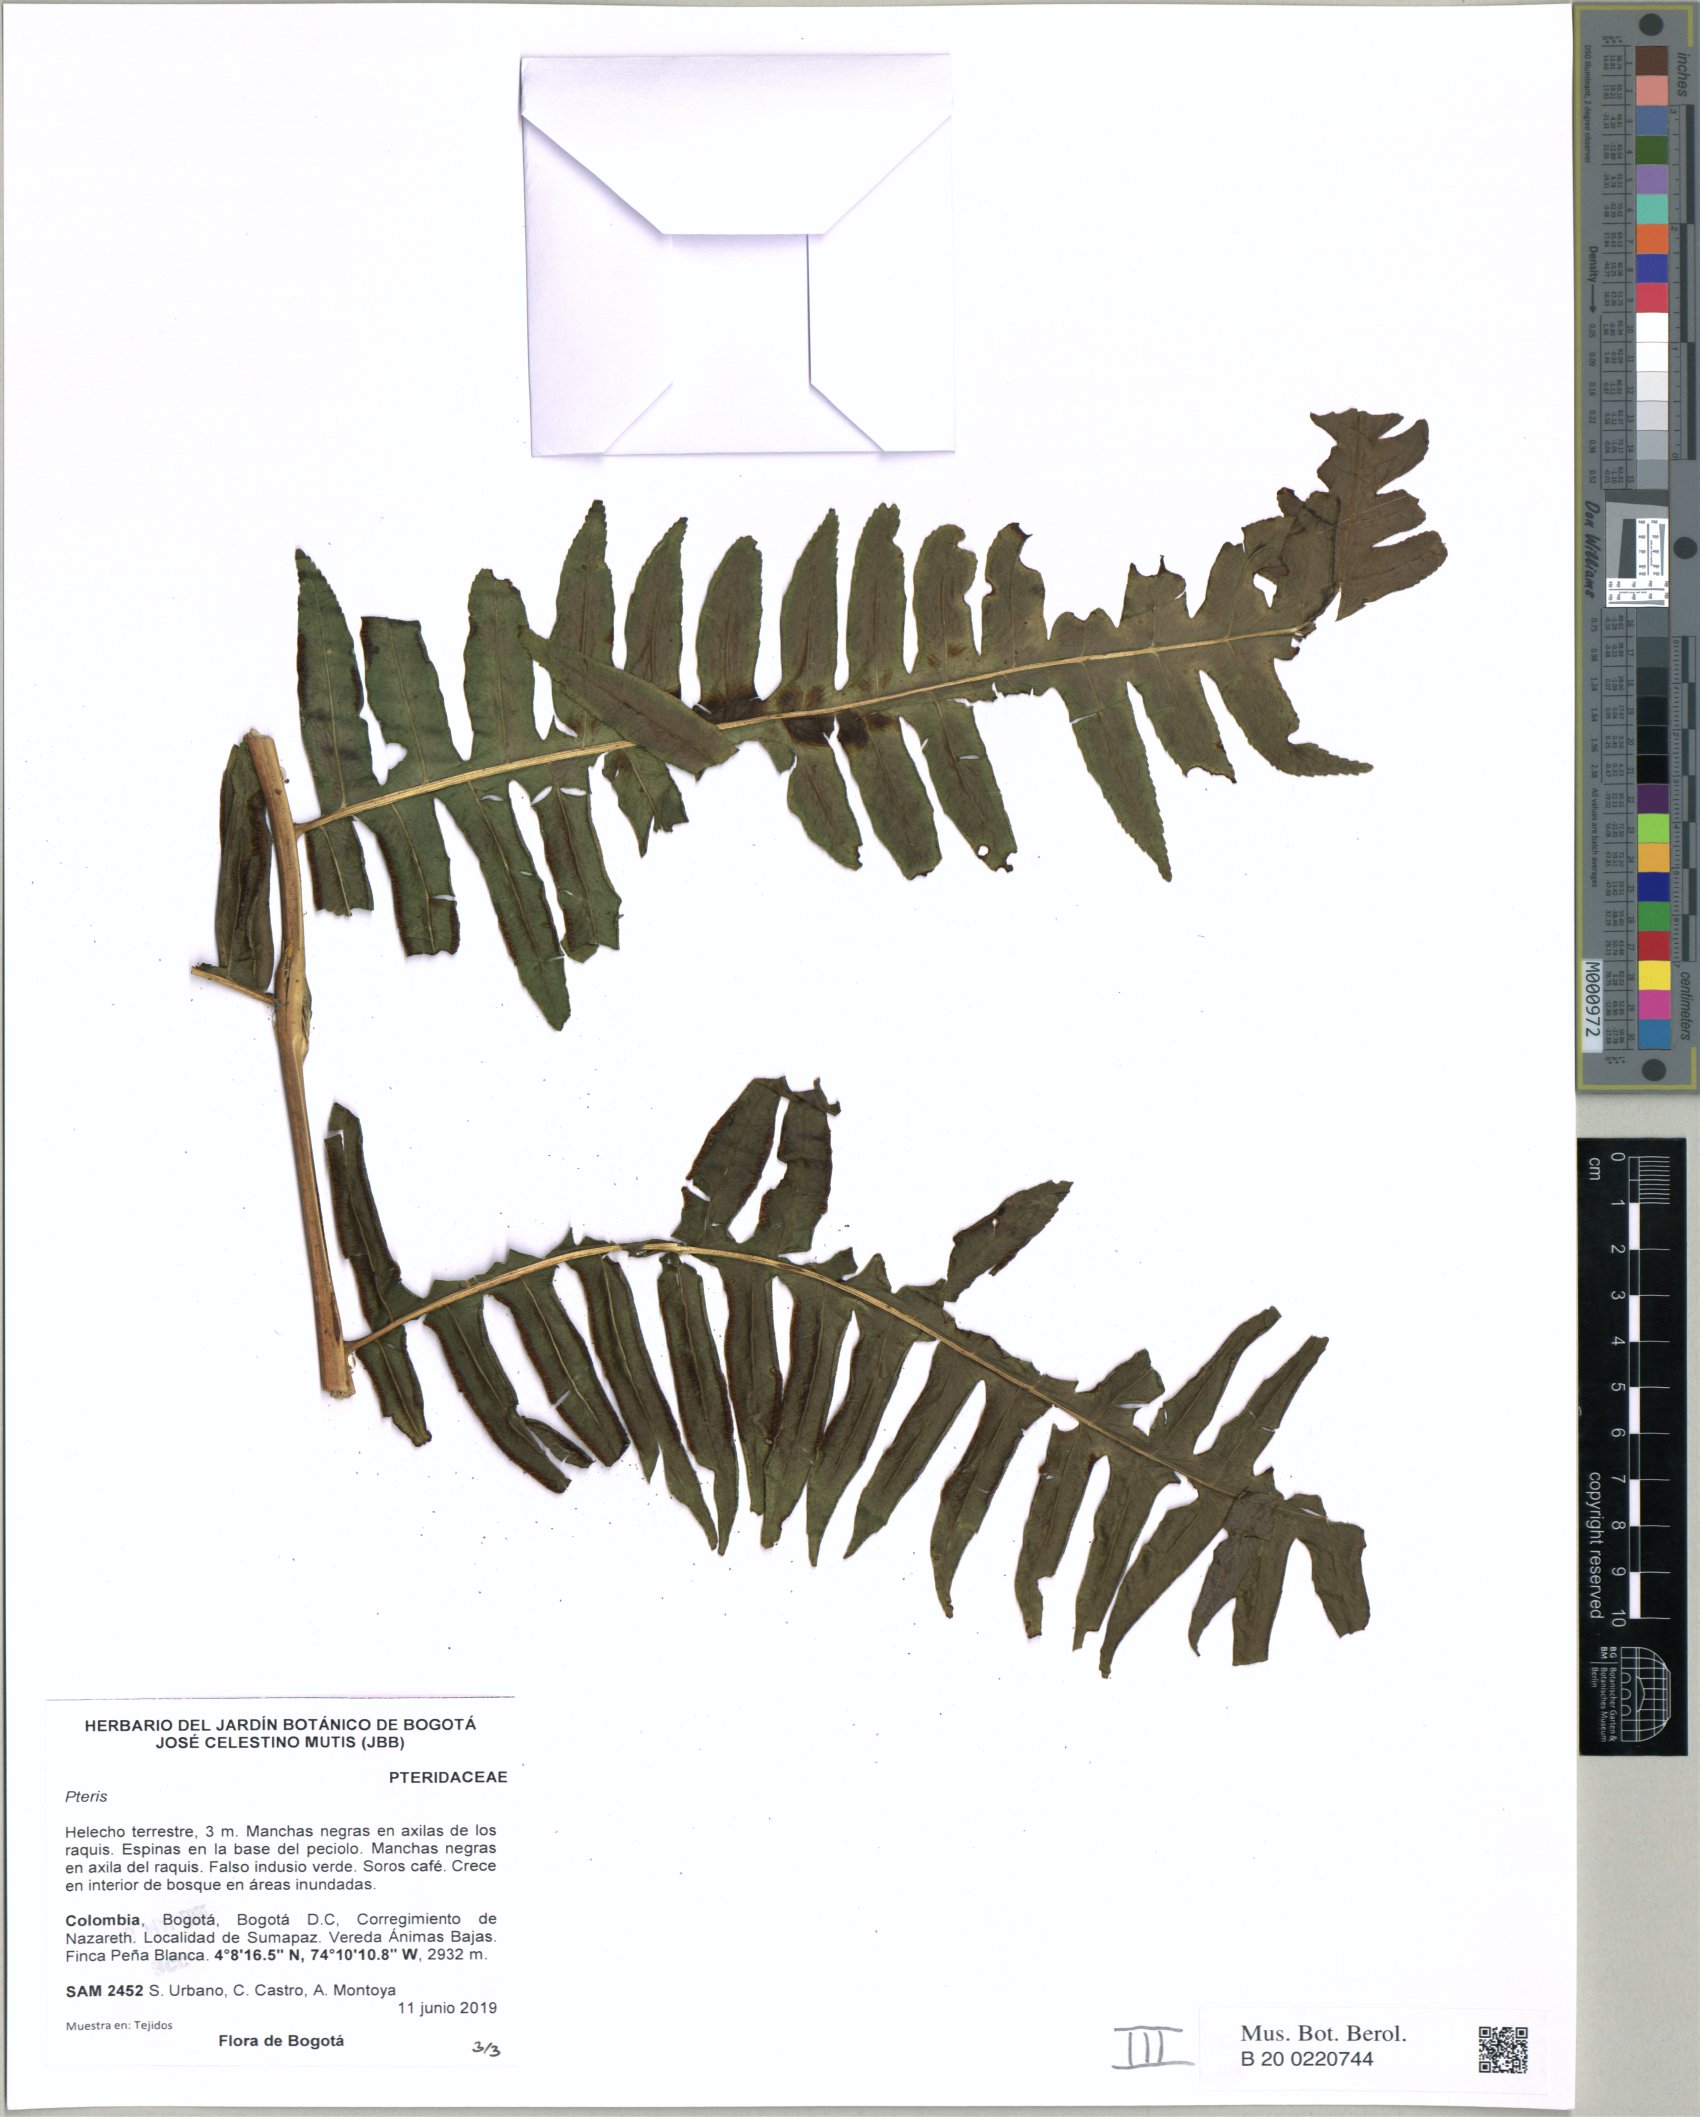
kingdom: Plantae
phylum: Tracheophyta
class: Polypodiopsida
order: Polypodiales
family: Pteridaceae
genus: Pteris
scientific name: Pteris
